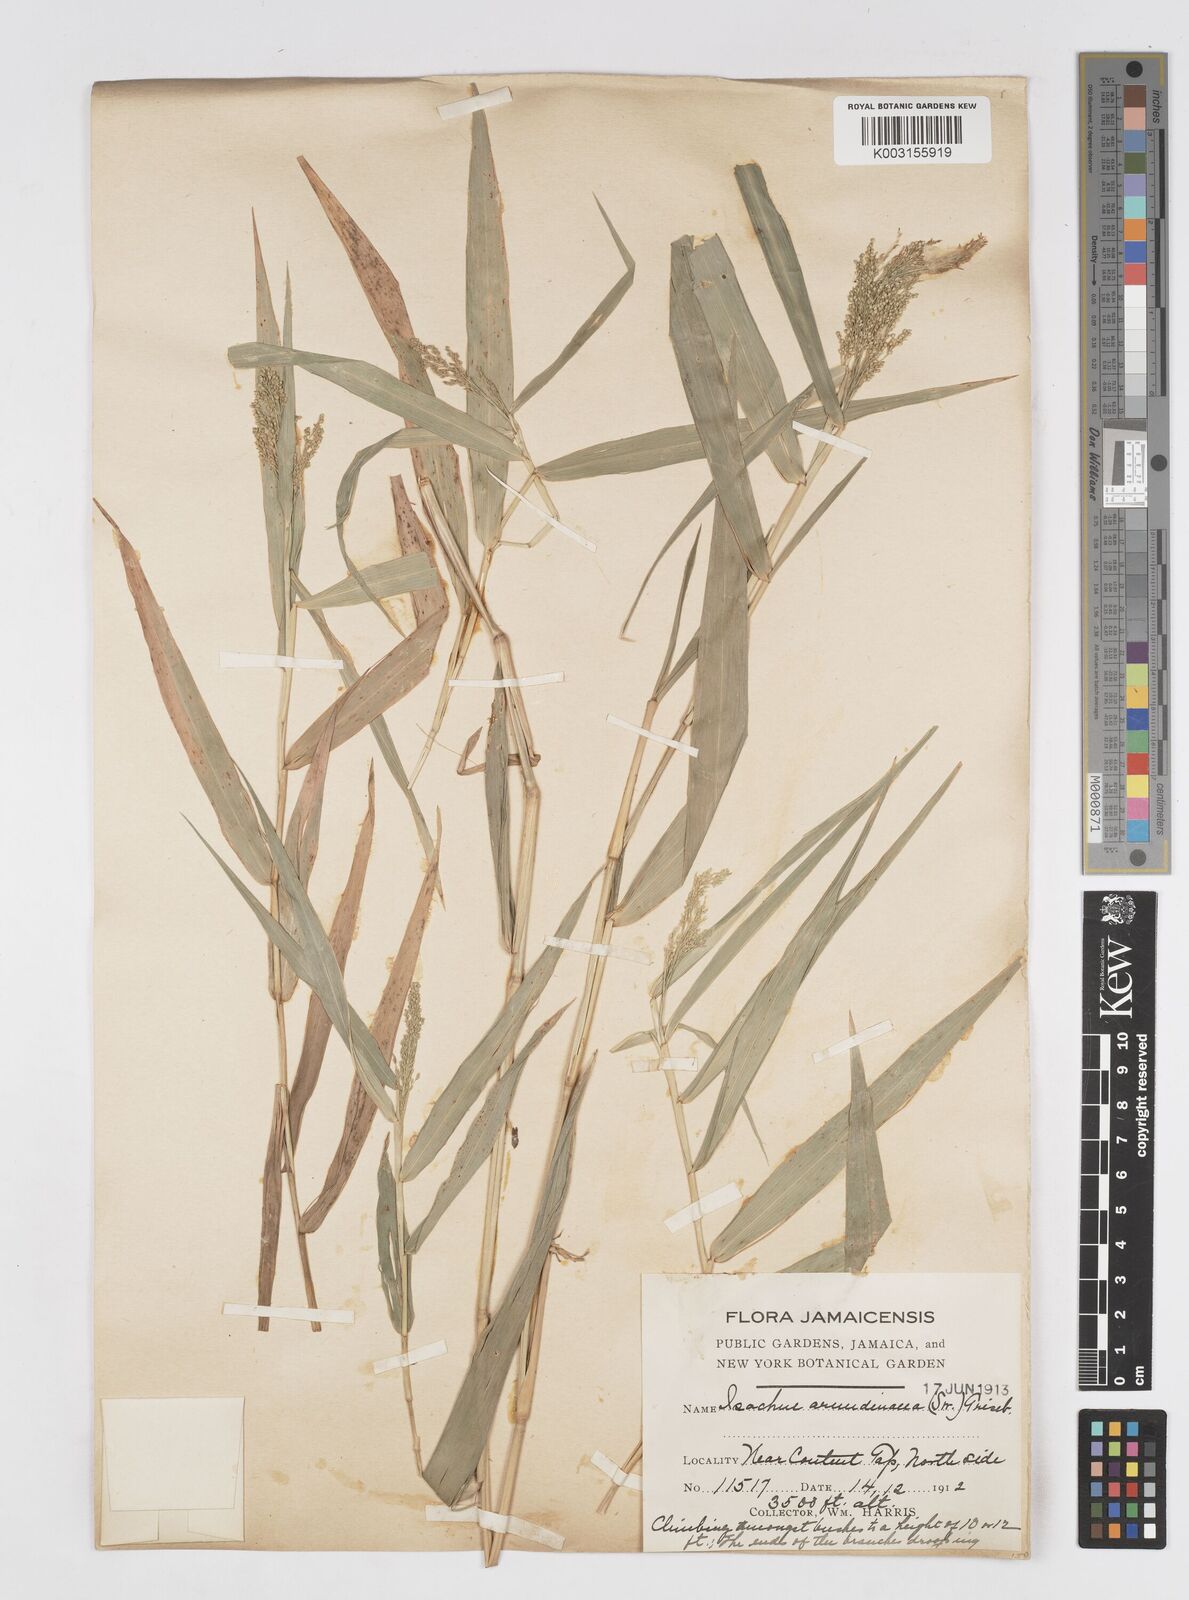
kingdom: Plantae
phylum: Tracheophyta
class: Liliopsida
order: Poales
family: Poaceae
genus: Isachne
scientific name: Isachne arundinacea
